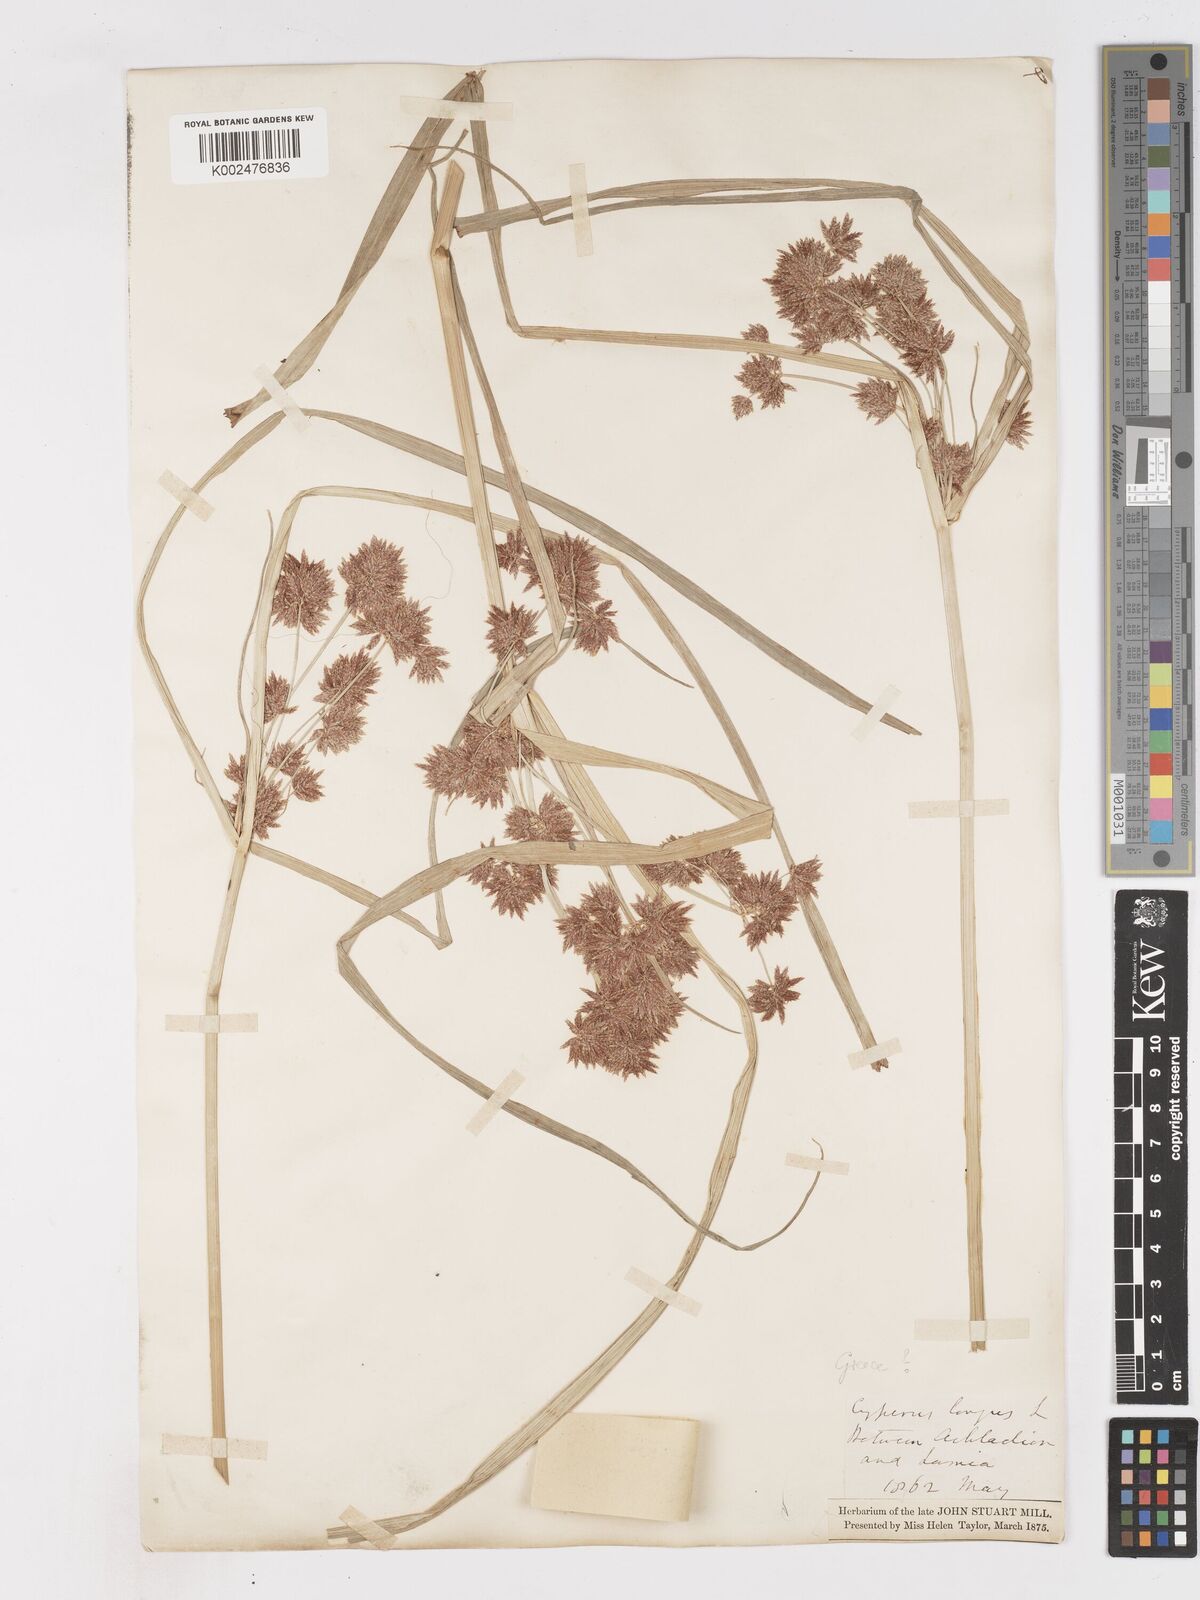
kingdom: Plantae
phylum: Tracheophyta
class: Liliopsida
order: Poales
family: Cyperaceae
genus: Cyperus
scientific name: Cyperus longus
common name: Galingale
